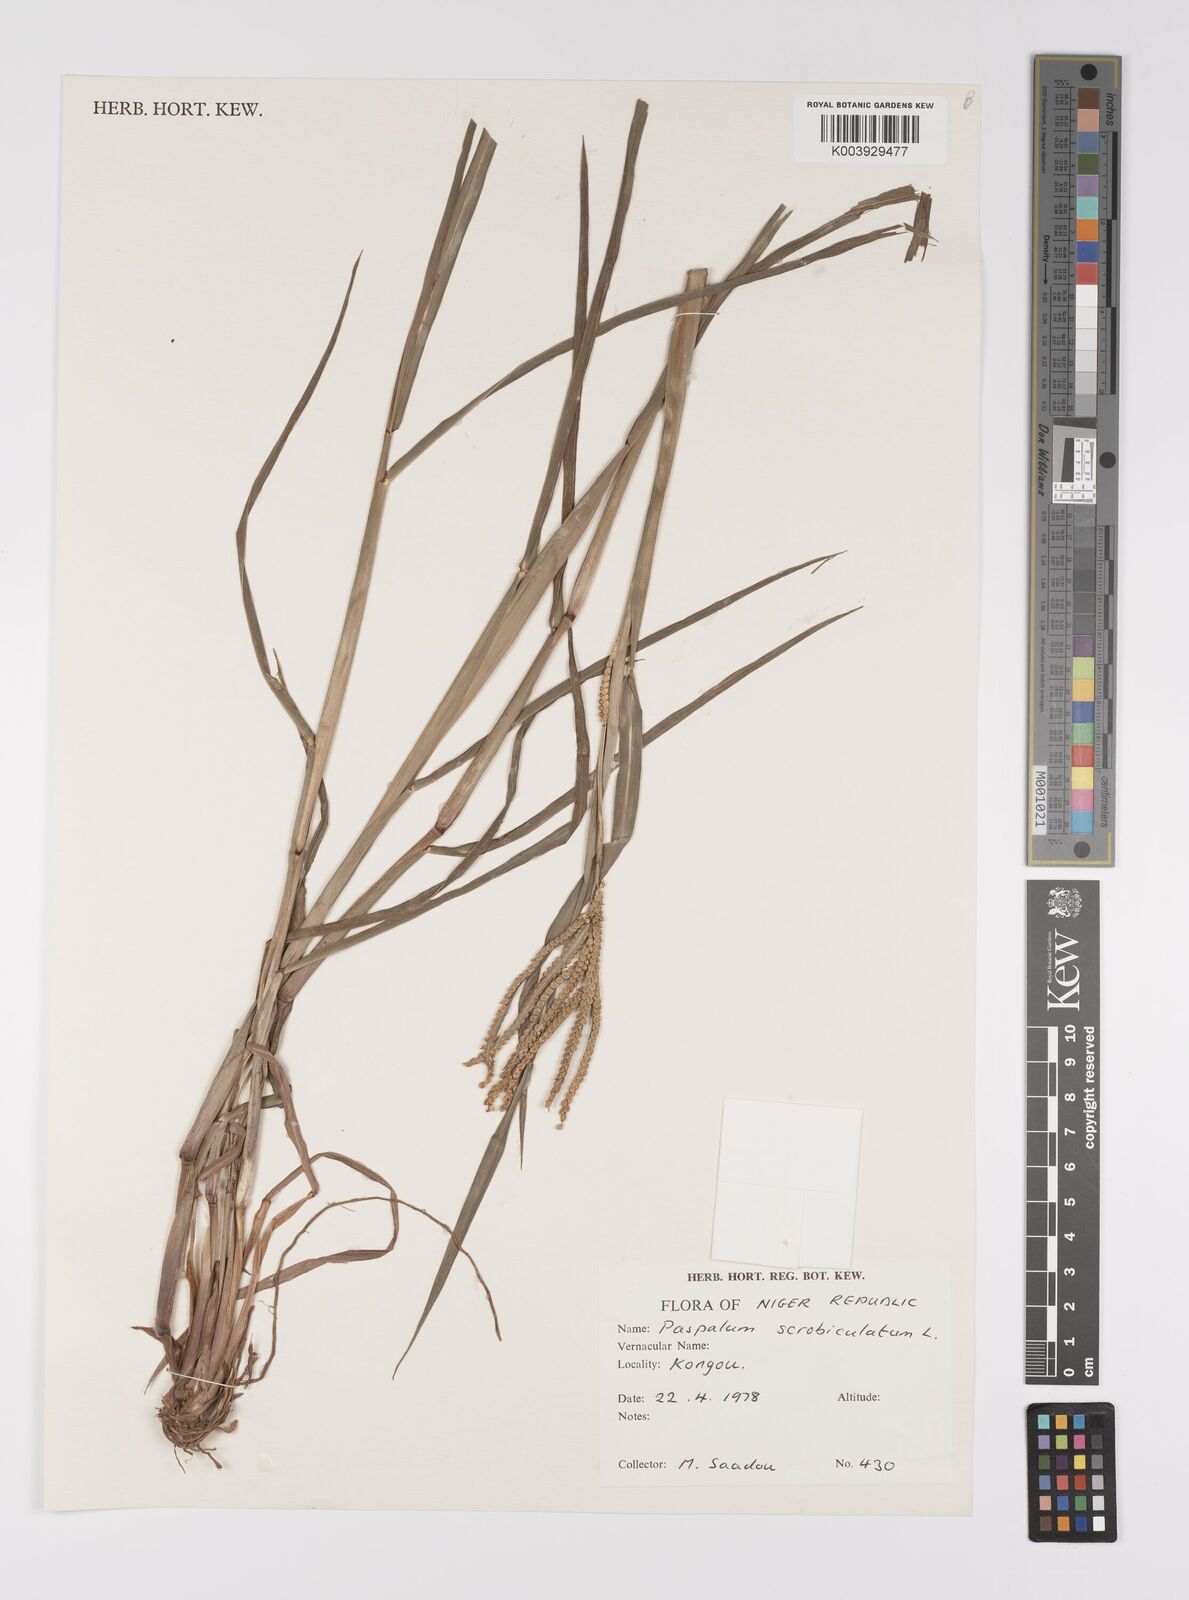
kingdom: Plantae
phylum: Tracheophyta
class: Liliopsida
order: Poales
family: Poaceae
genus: Paspalum
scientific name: Paspalum scrobiculatum
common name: Kodo millet
